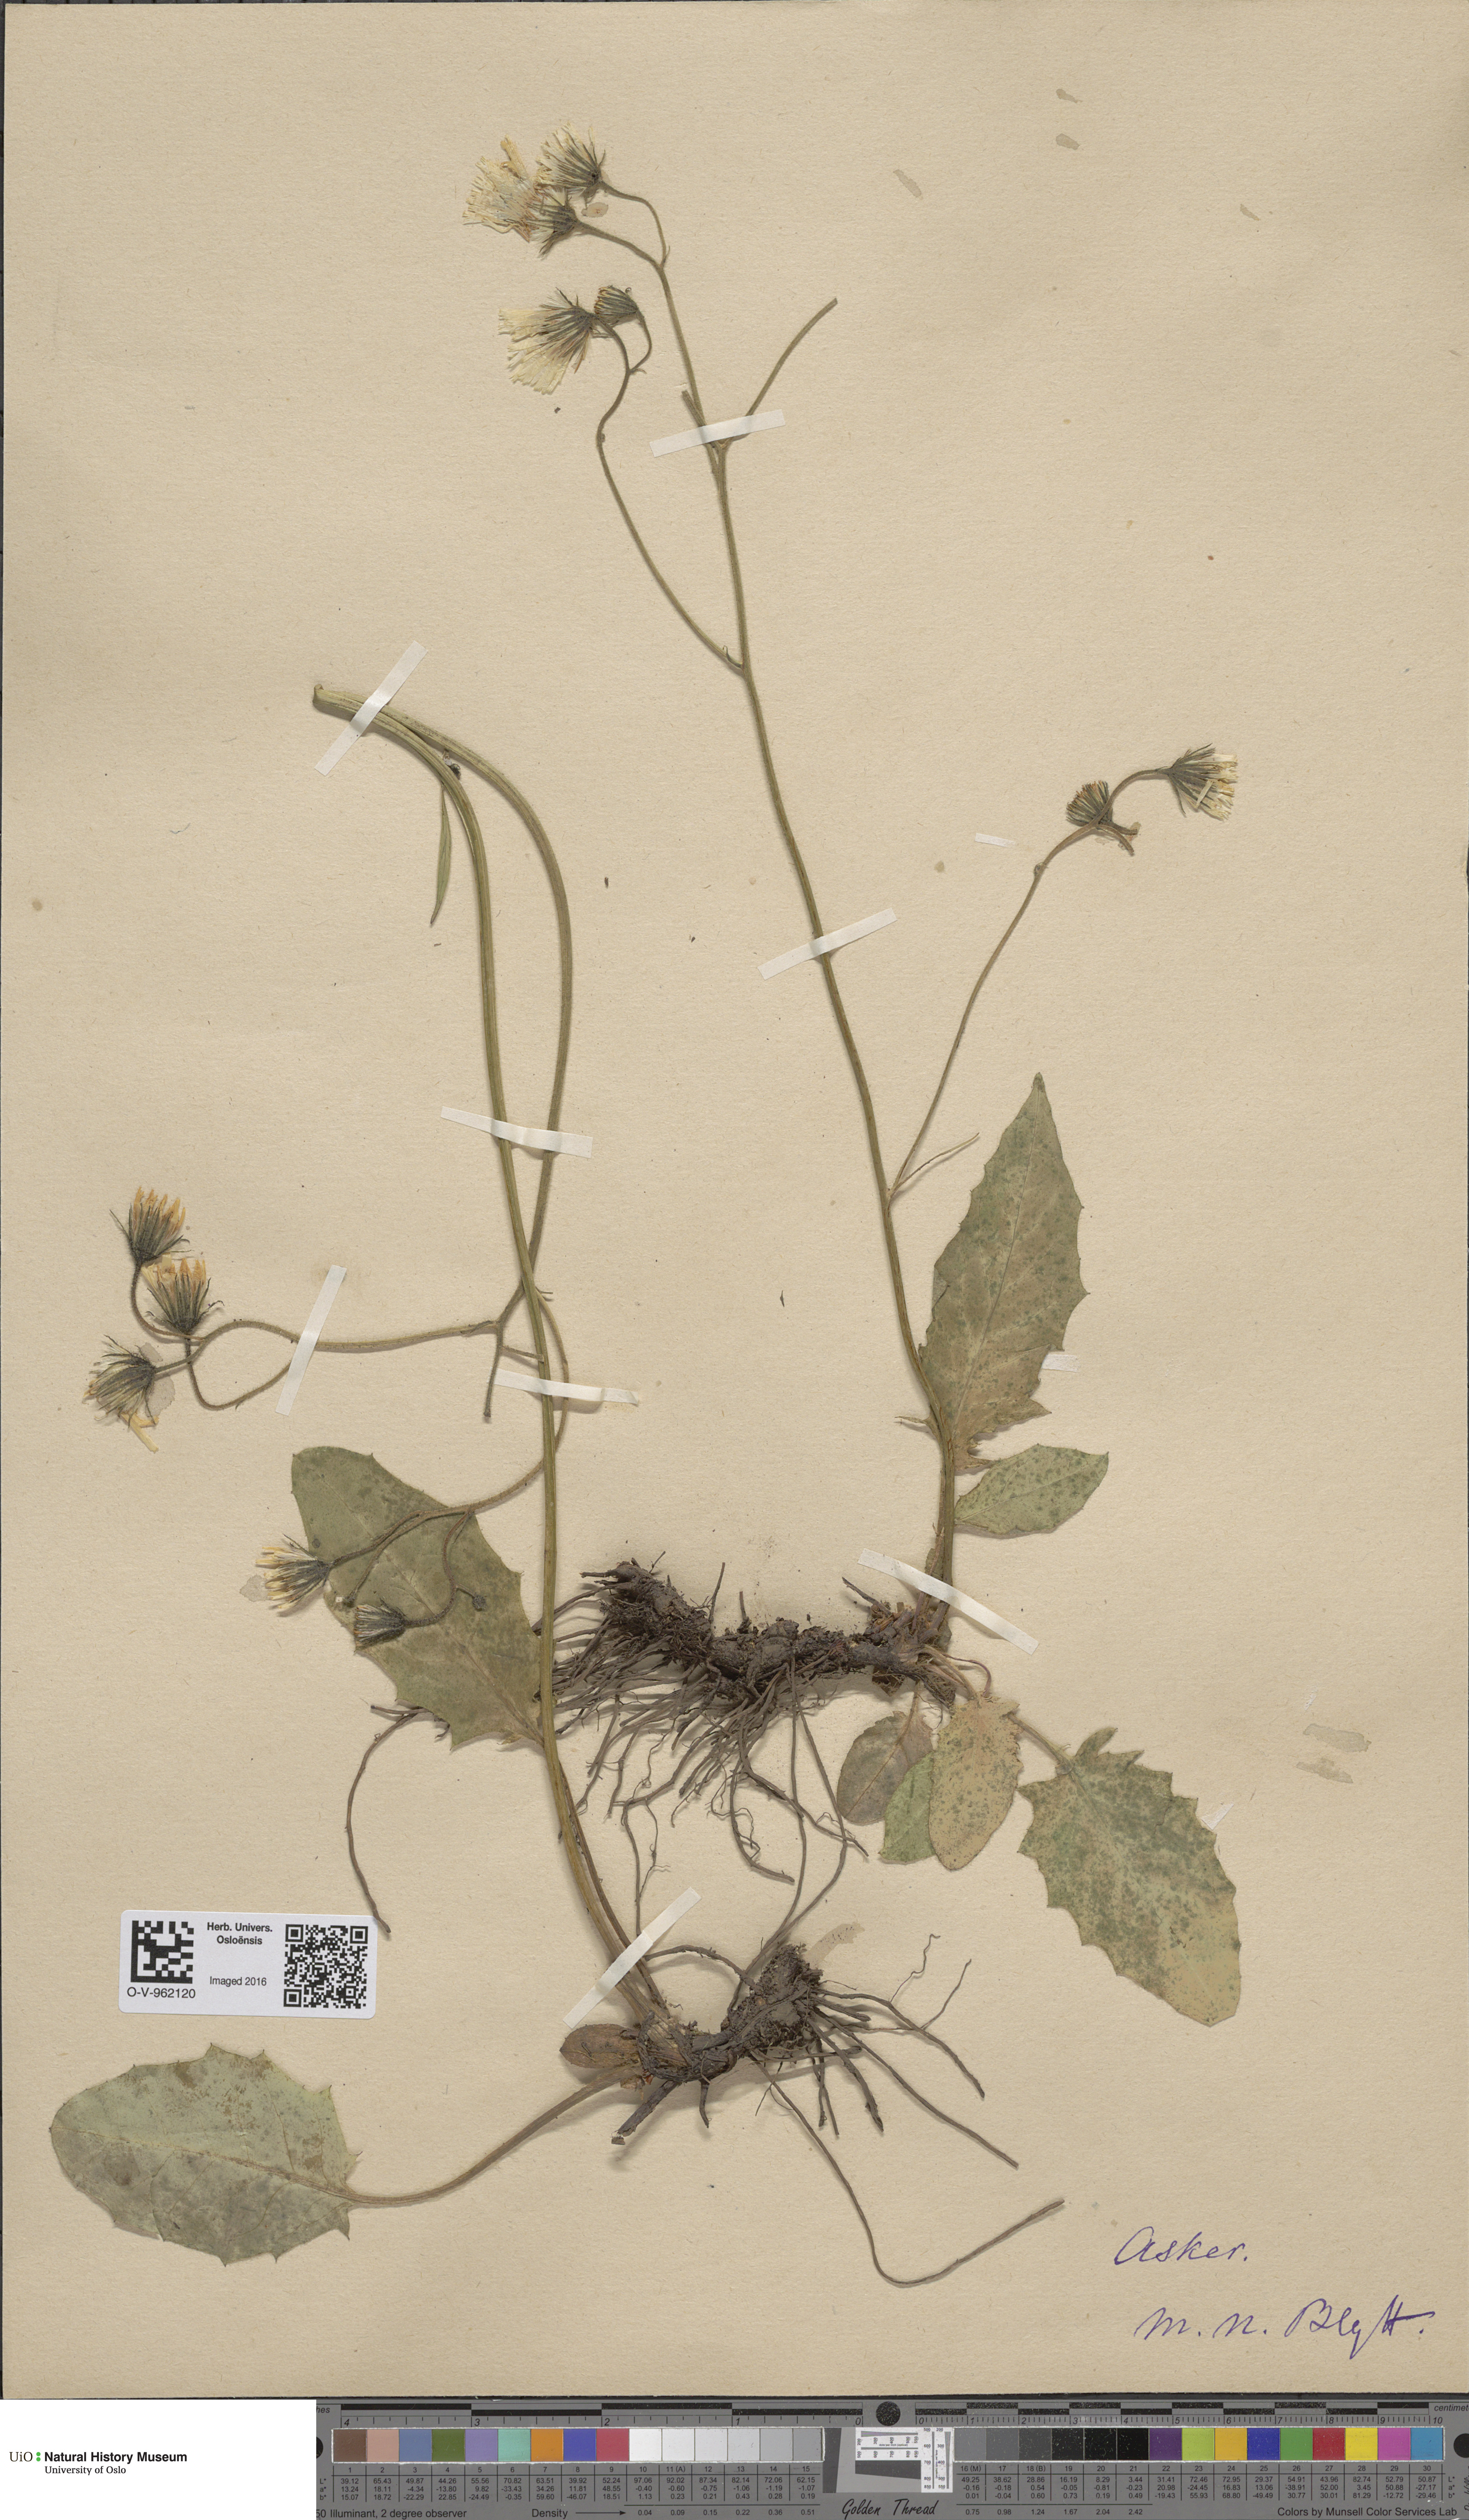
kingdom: Plantae
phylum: Tracheophyta
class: Magnoliopsida
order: Asterales
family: Asteraceae
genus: Hieracium
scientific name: Hieracium
